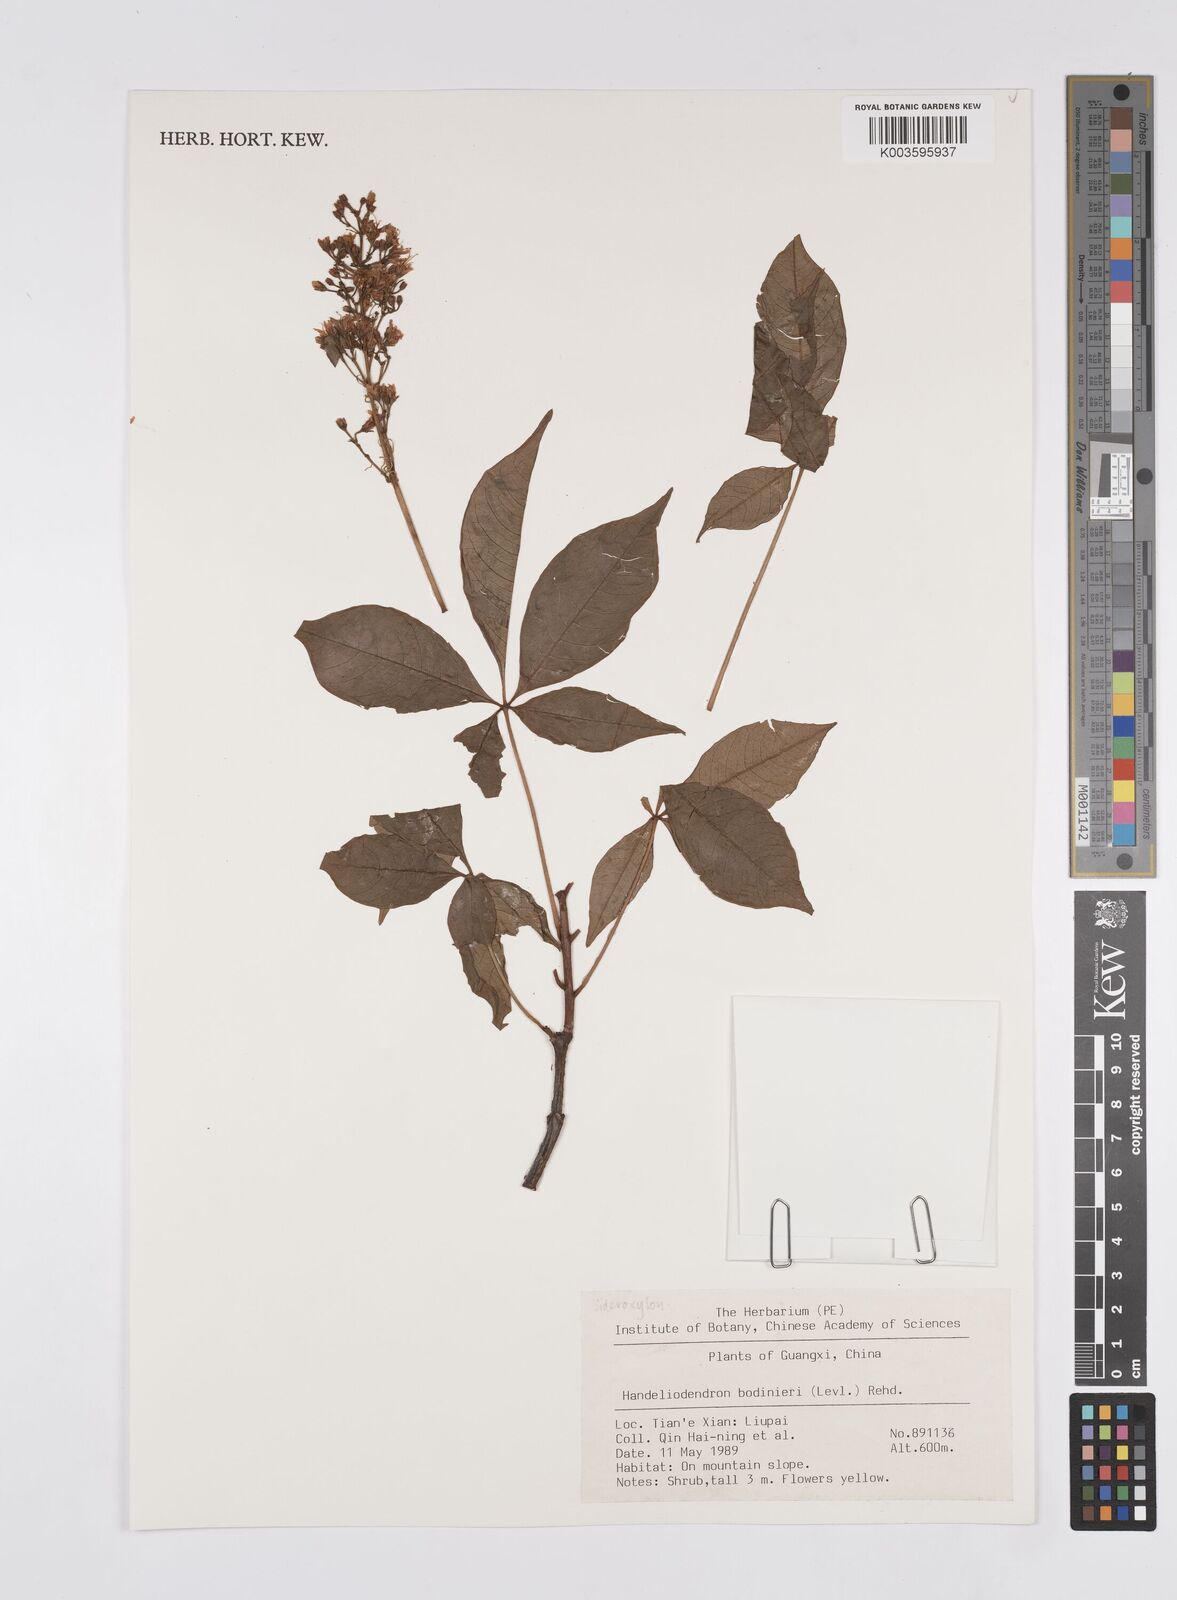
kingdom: Plantae
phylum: Tracheophyta
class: Magnoliopsida
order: Sapindales
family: Sapindaceae
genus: Handeliodendron
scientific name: Handeliodendron bodinieri
